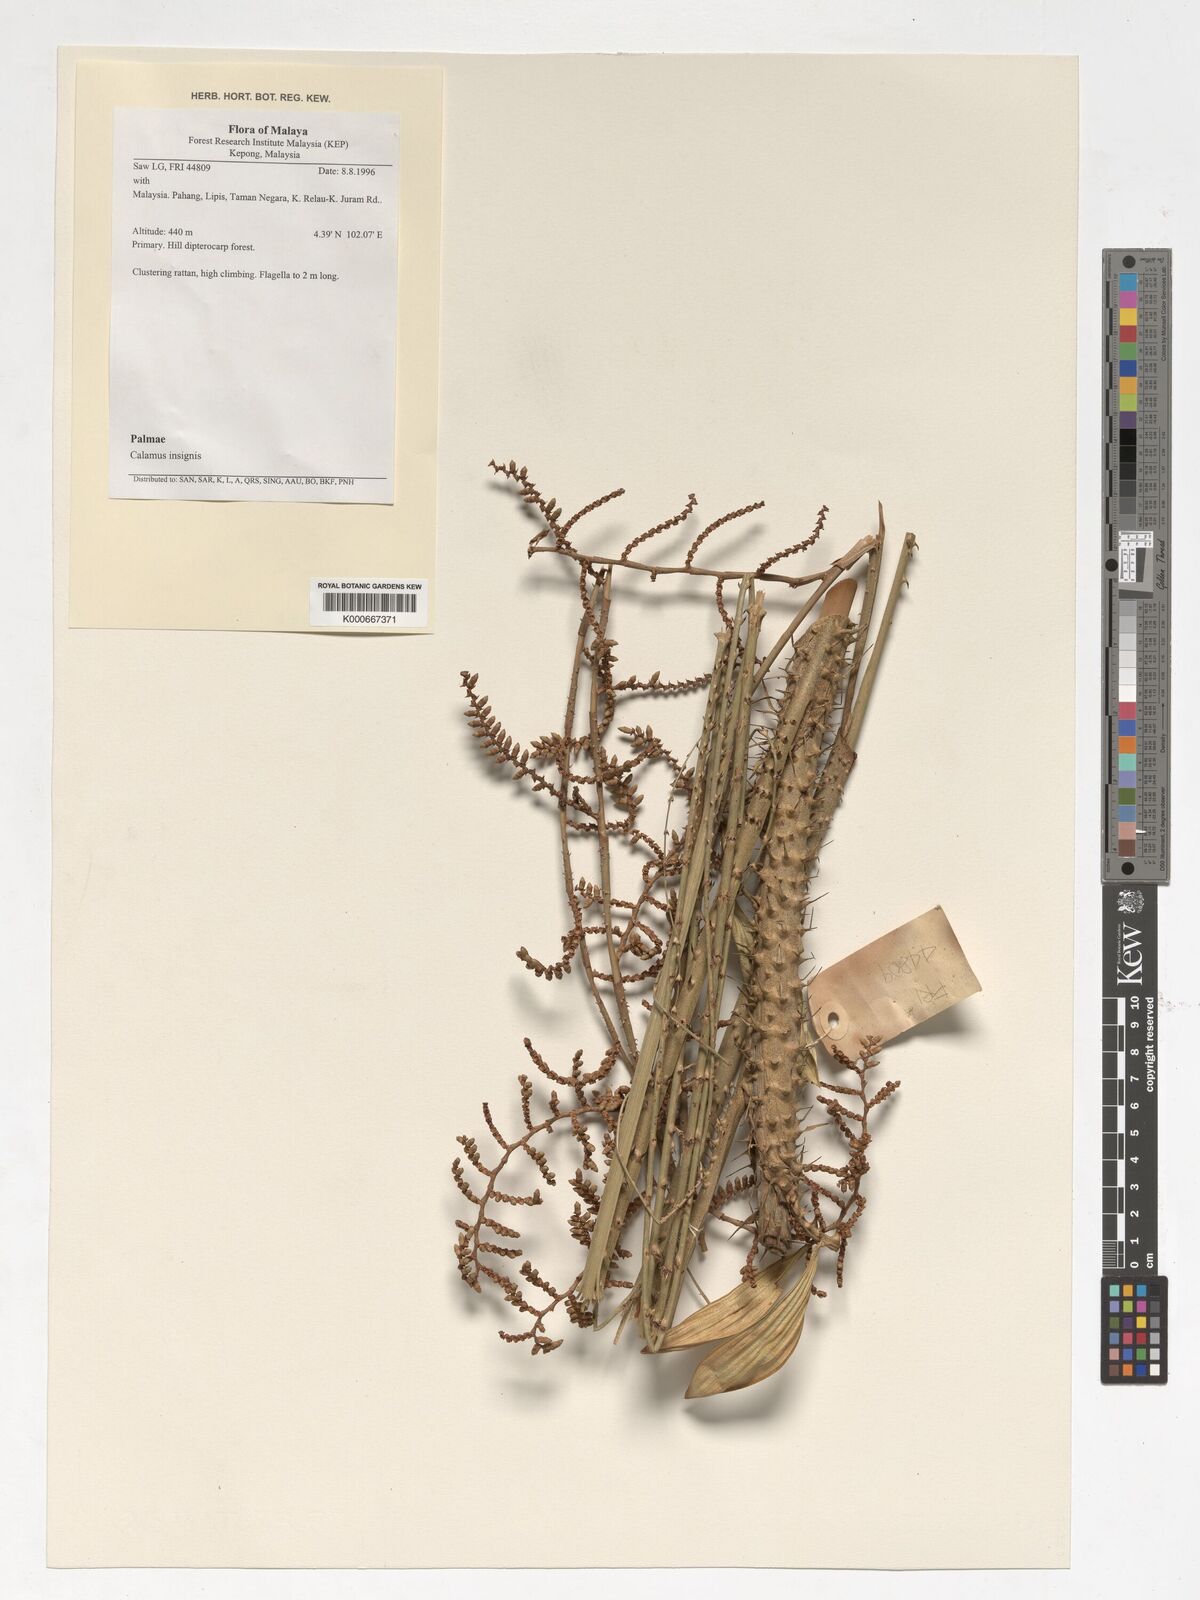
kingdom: Plantae
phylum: Tracheophyta
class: Liliopsida
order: Arecales
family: Arecaceae
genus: Calamus
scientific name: Calamus insignis
